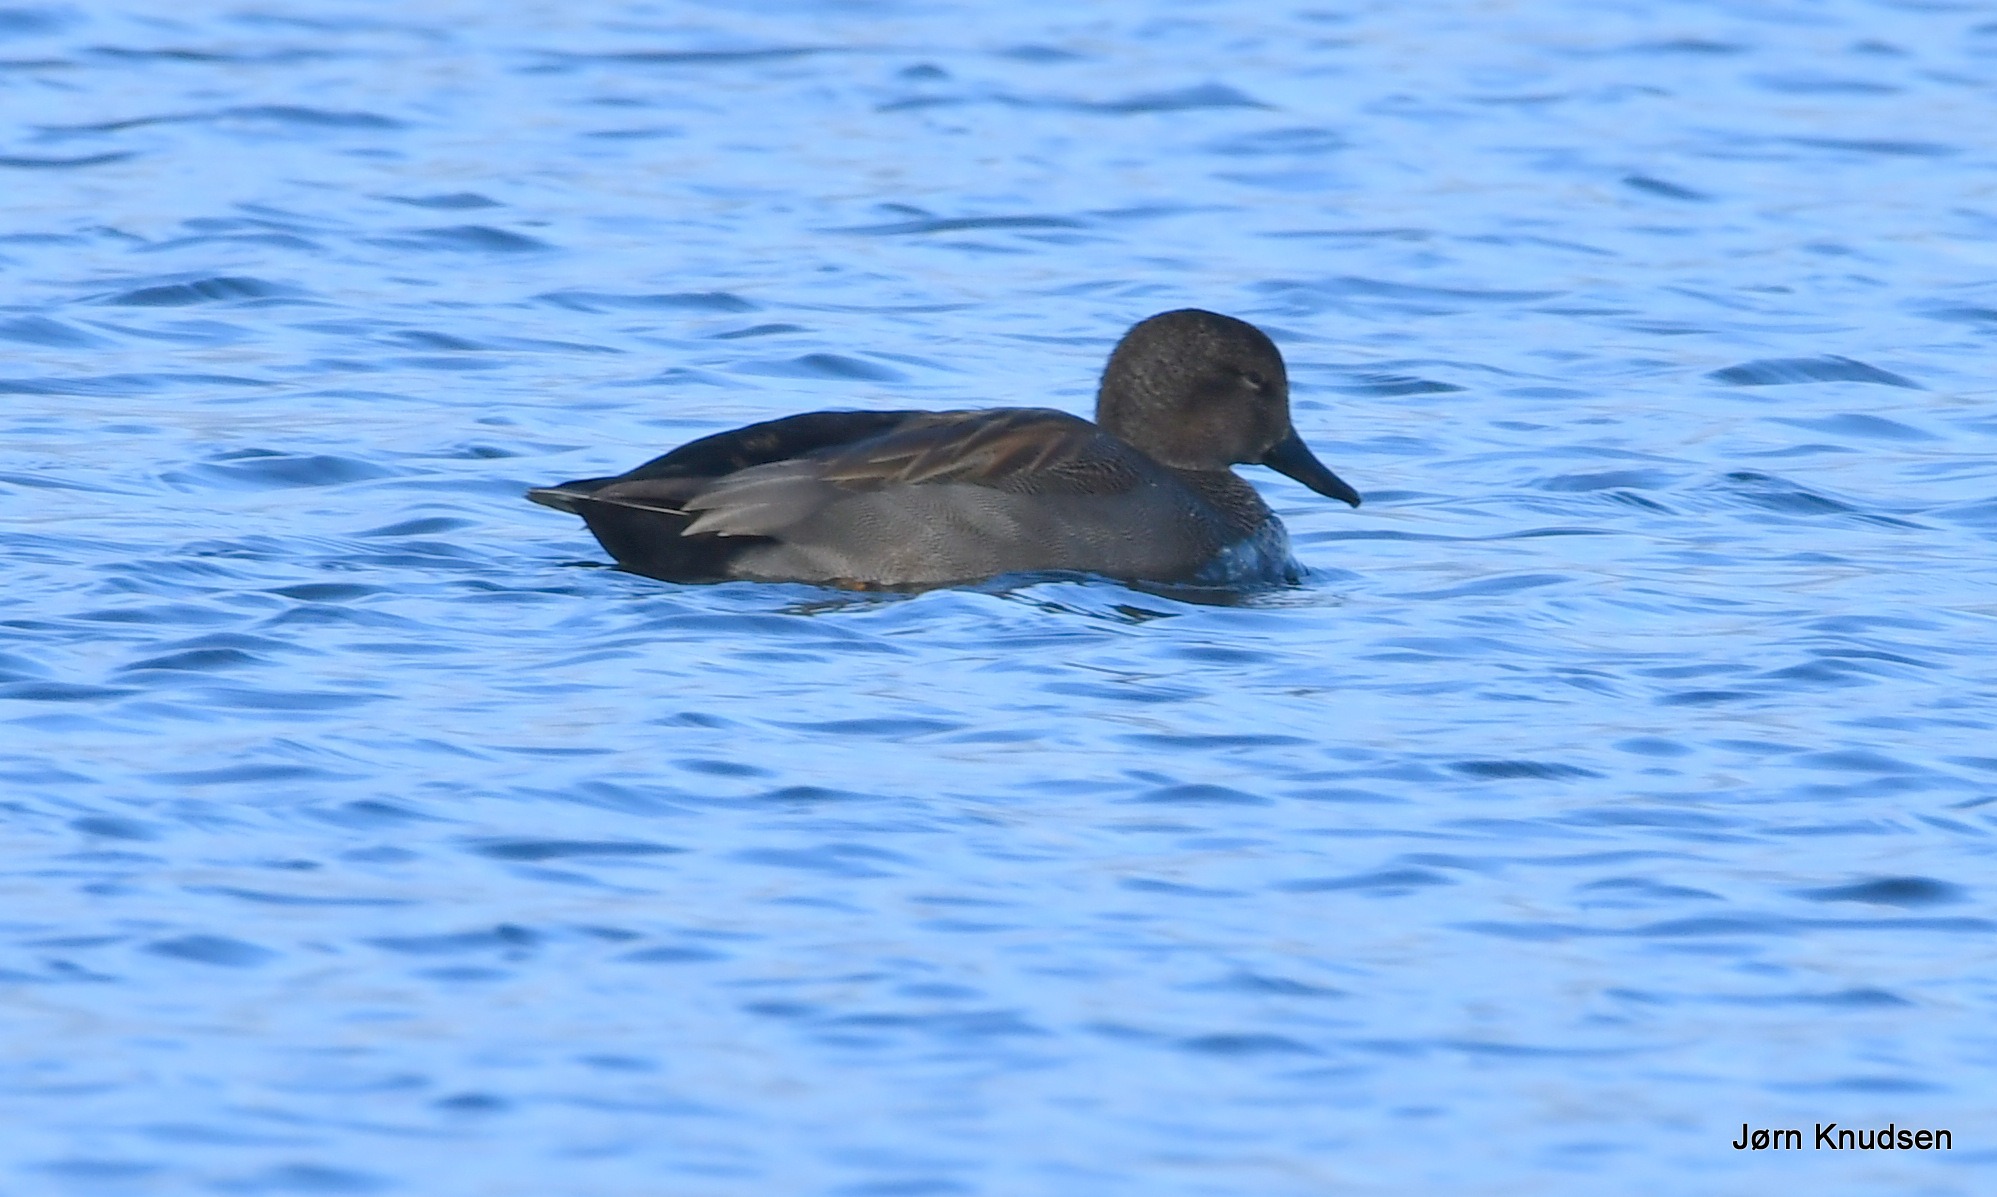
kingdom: Animalia
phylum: Chordata
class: Aves
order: Anseriformes
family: Anatidae
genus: Mareca
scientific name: Mareca strepera
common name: Knarand
